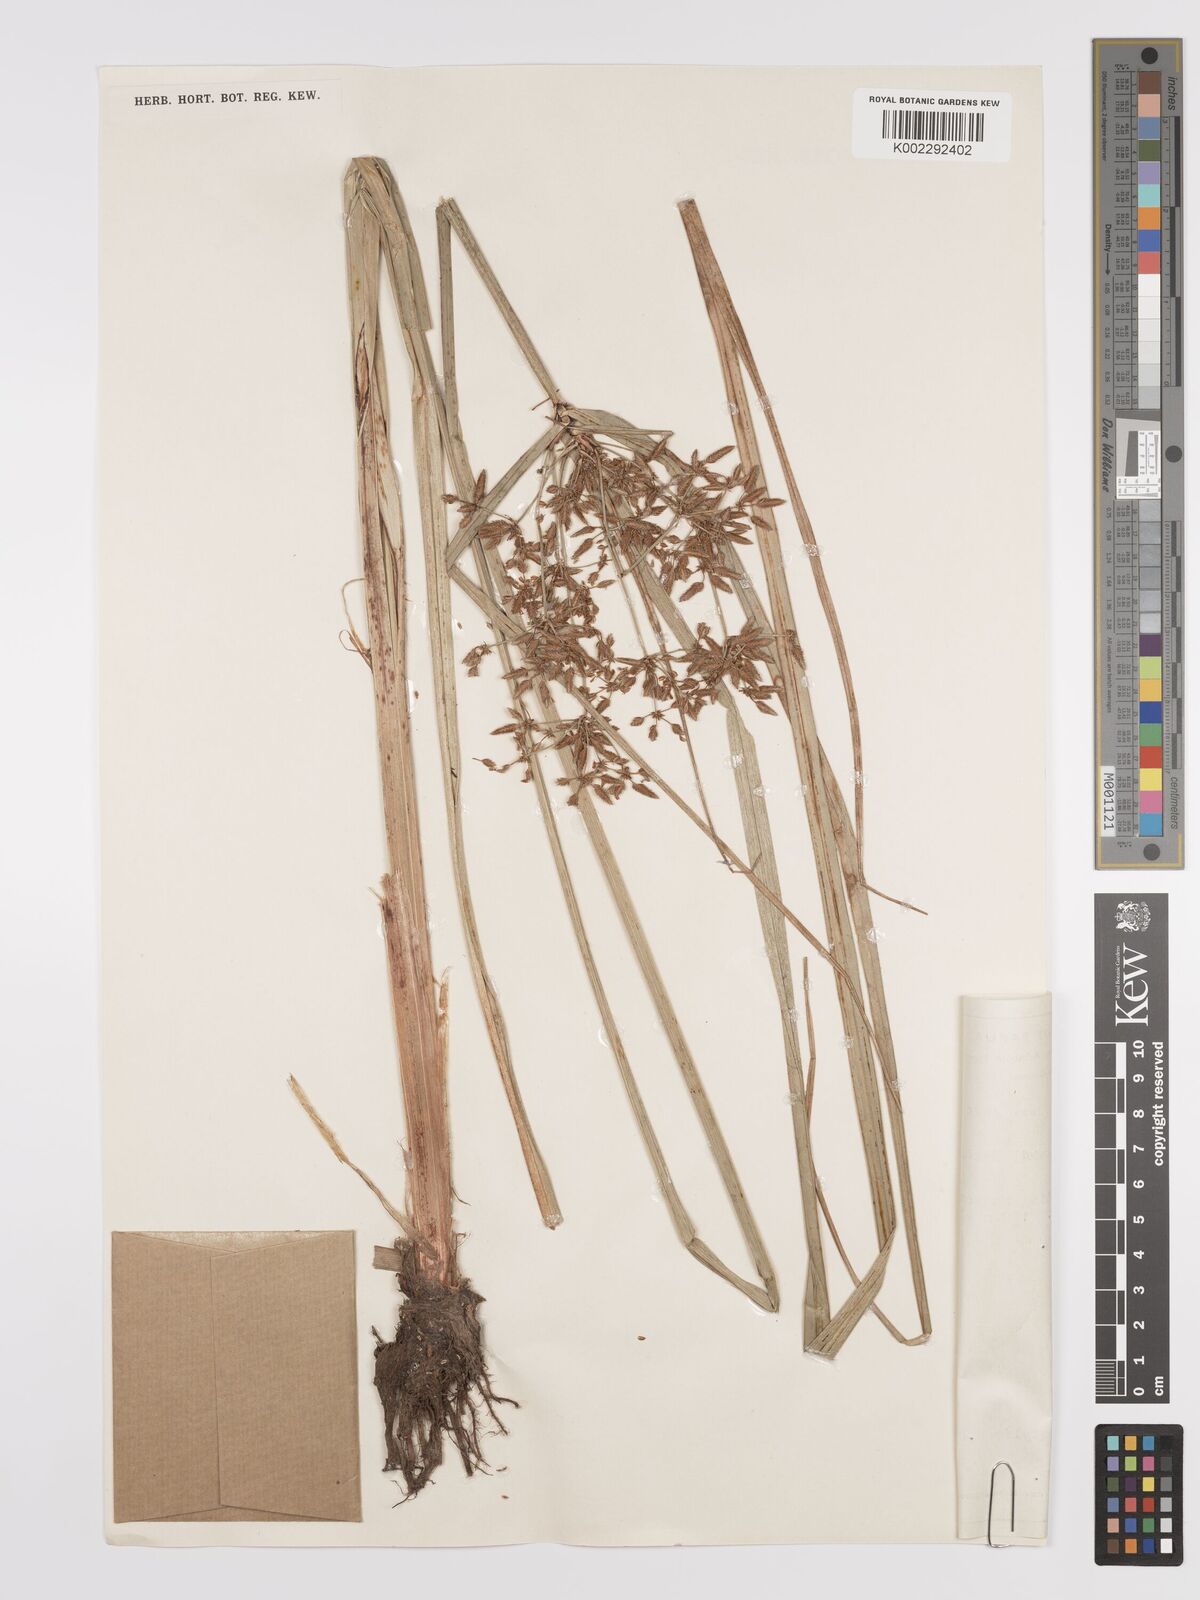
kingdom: Plantae
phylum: Tracheophyta
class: Liliopsida
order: Poales
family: Cyperaceae
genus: Cyperus
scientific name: Cyperus platystylis
